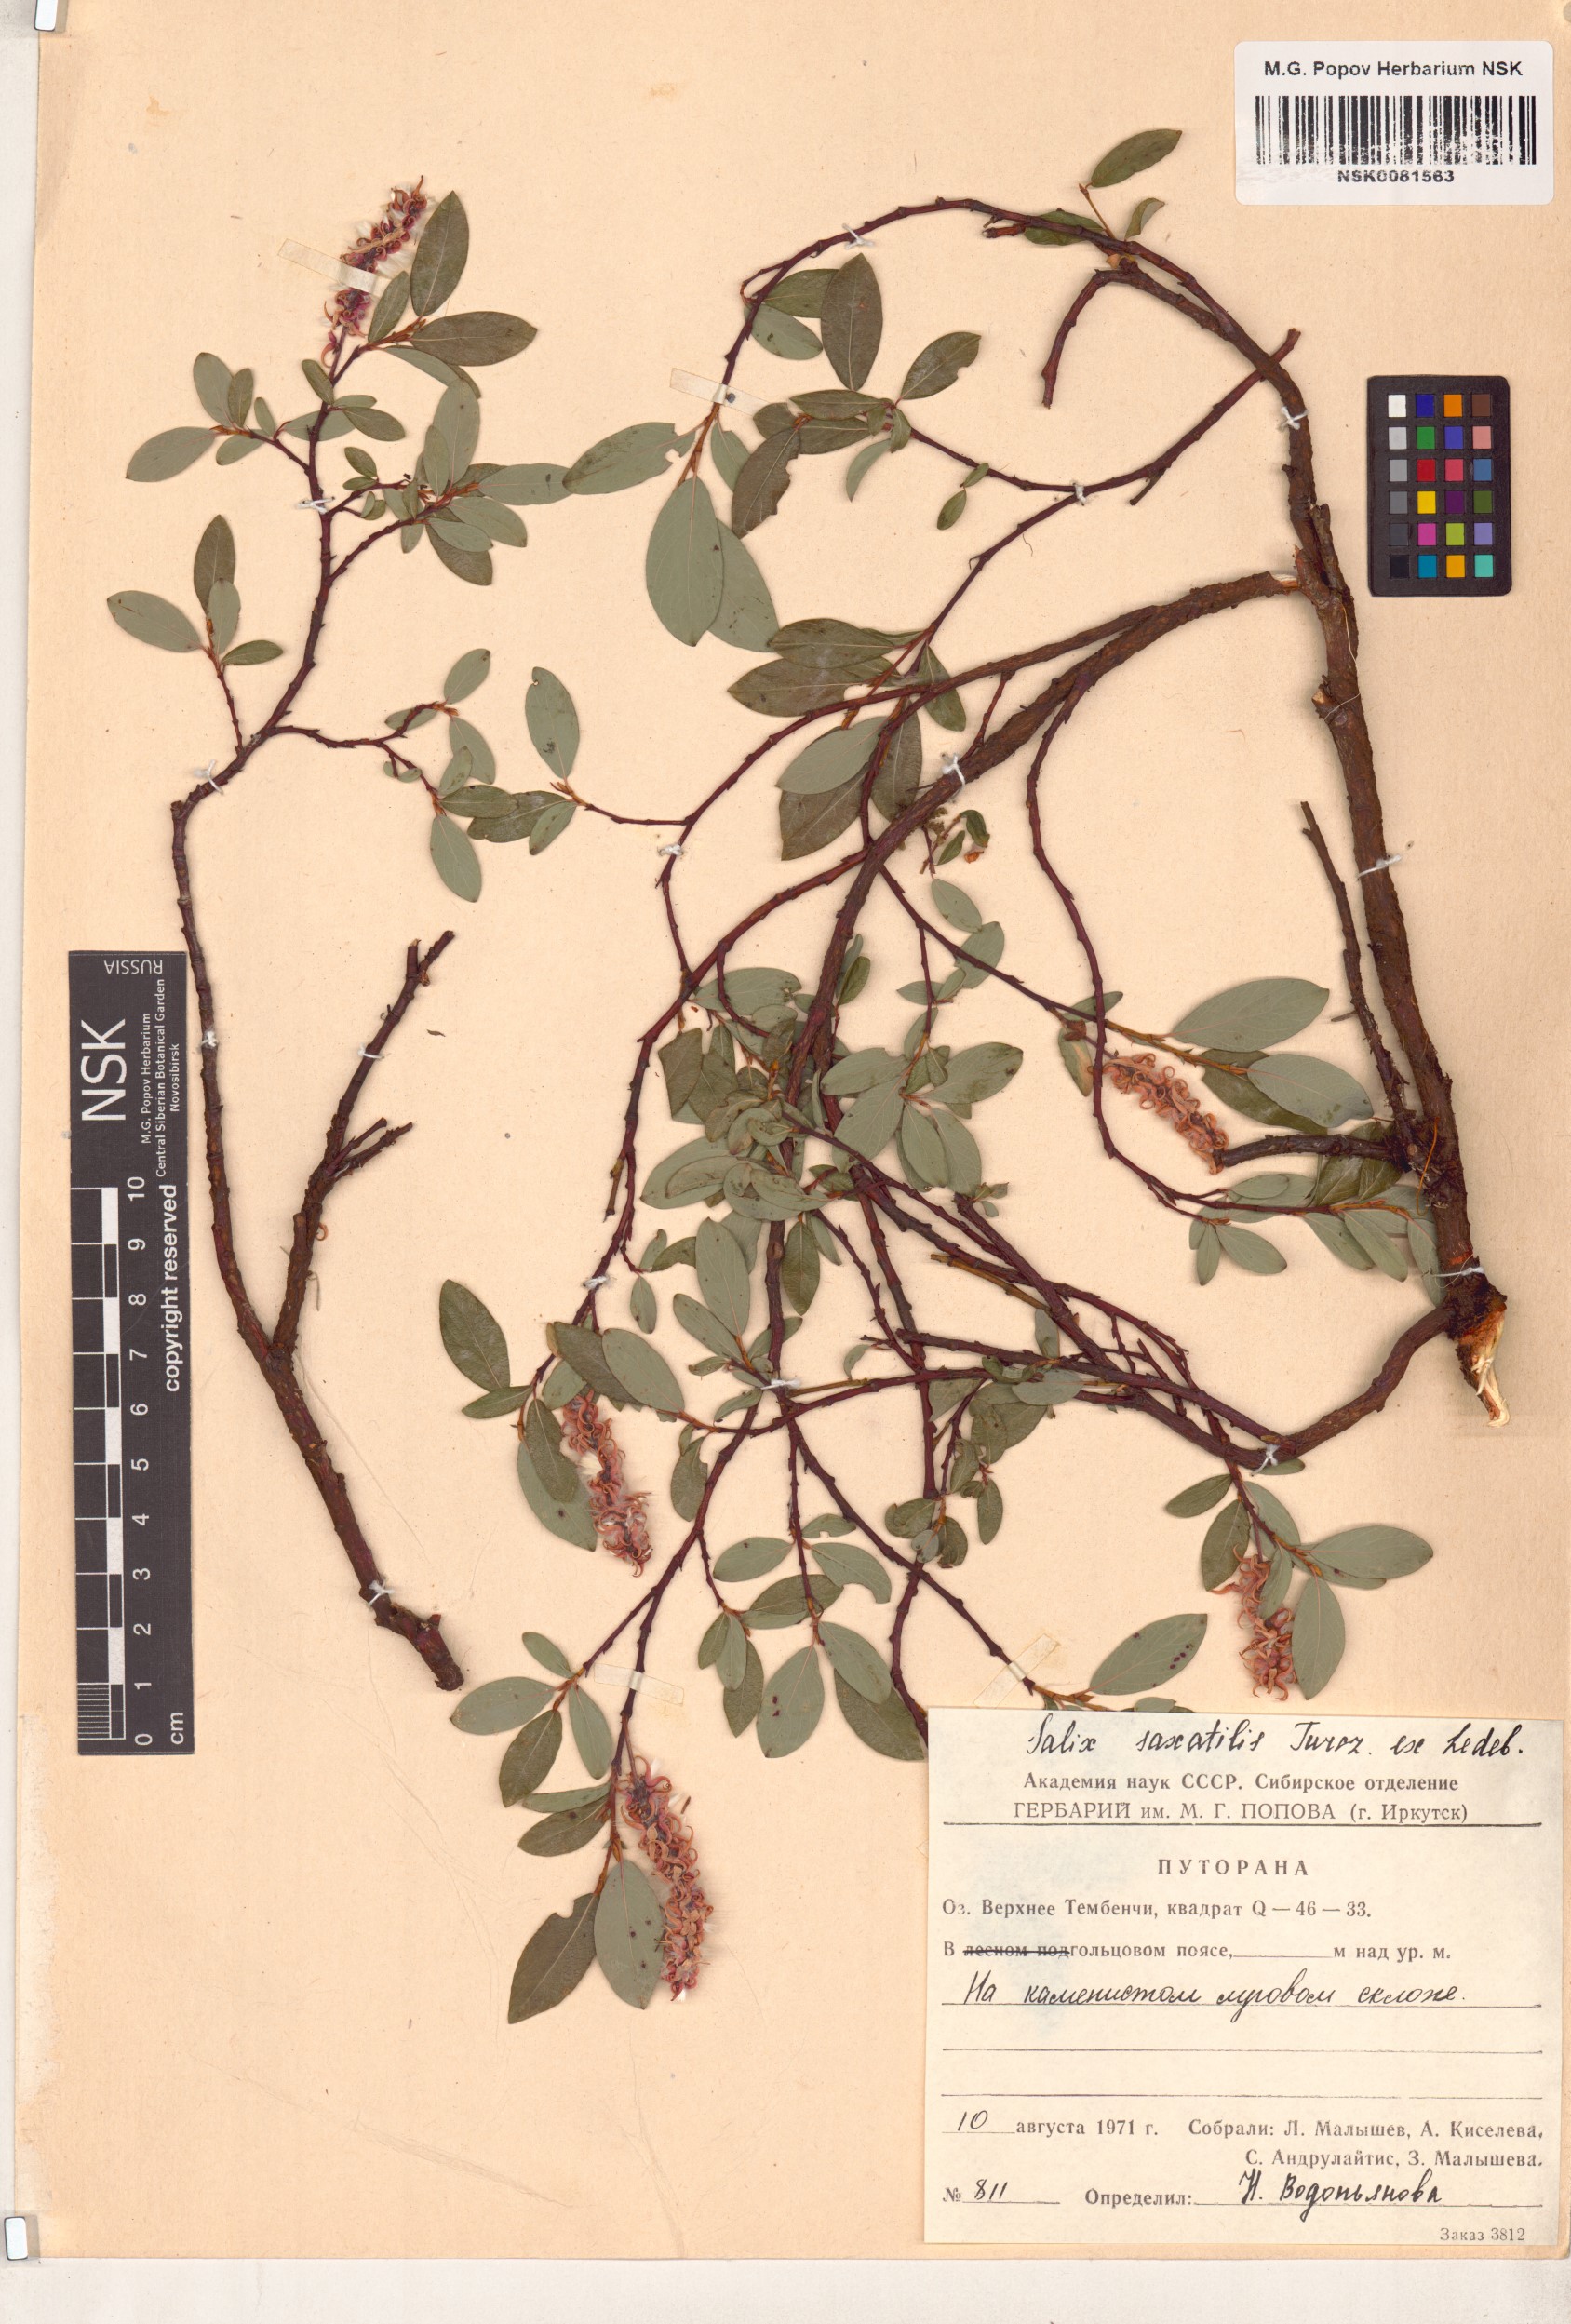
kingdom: Plantae
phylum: Tracheophyta
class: Magnoliopsida
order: Malpighiales
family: Salicaceae
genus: Salix
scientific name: Salix saxatilis
